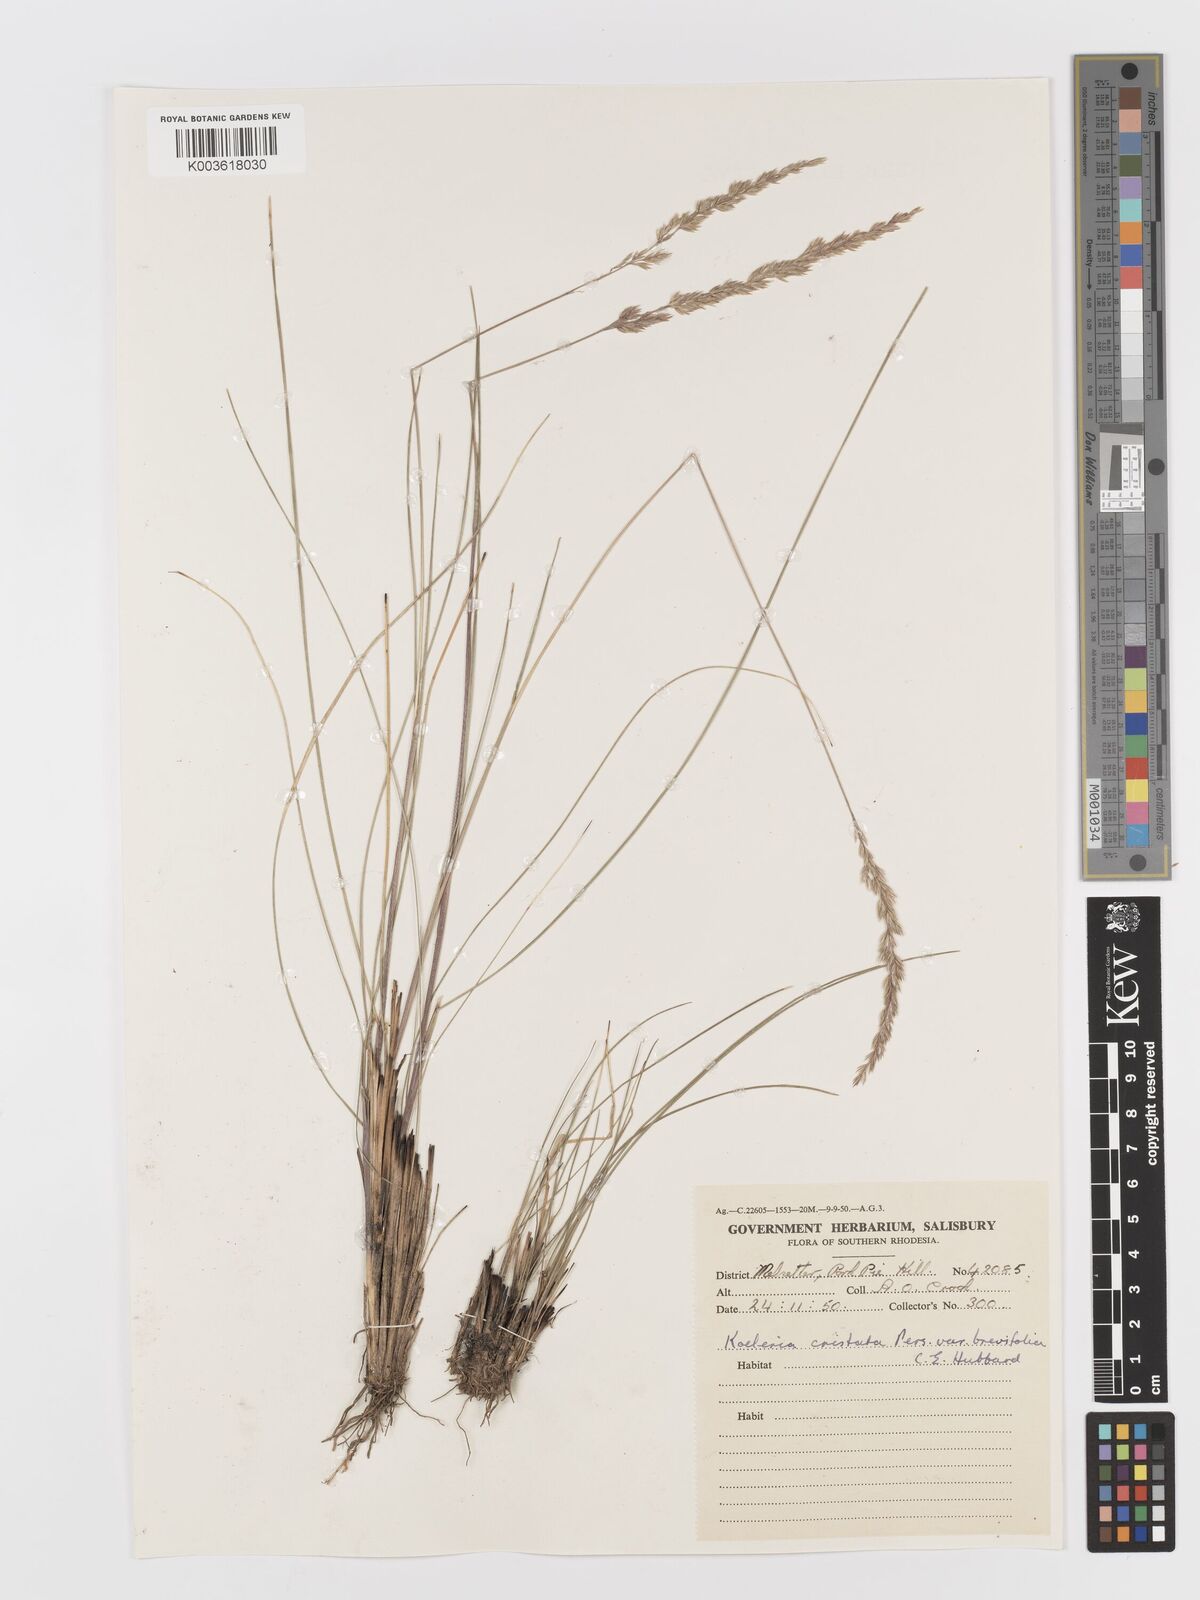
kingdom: Plantae
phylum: Tracheophyta
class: Liliopsida
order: Poales
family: Poaceae
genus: Koeleria
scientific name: Koeleria capensis
